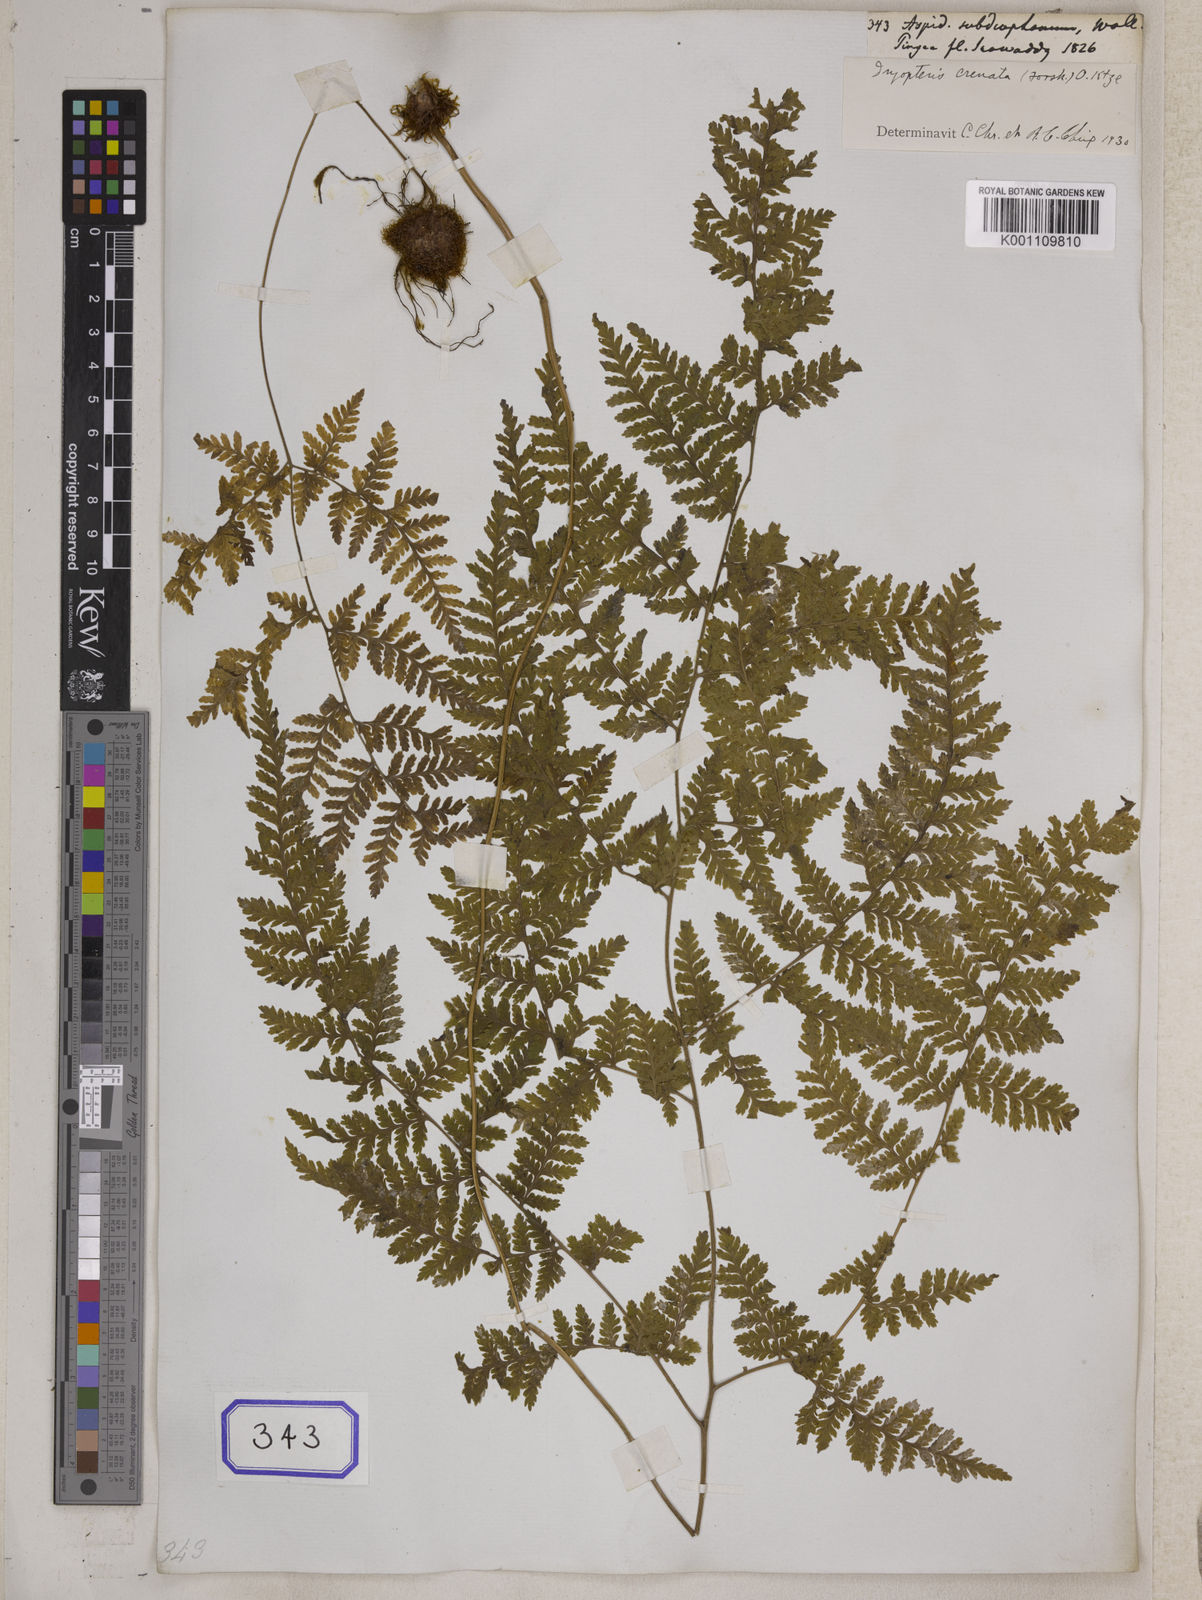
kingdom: Plantae
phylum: Tracheophyta
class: Polypodiopsida
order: Polypodiales
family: Hypodematiaceae
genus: Hypodematium
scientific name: Hypodematium shingii
